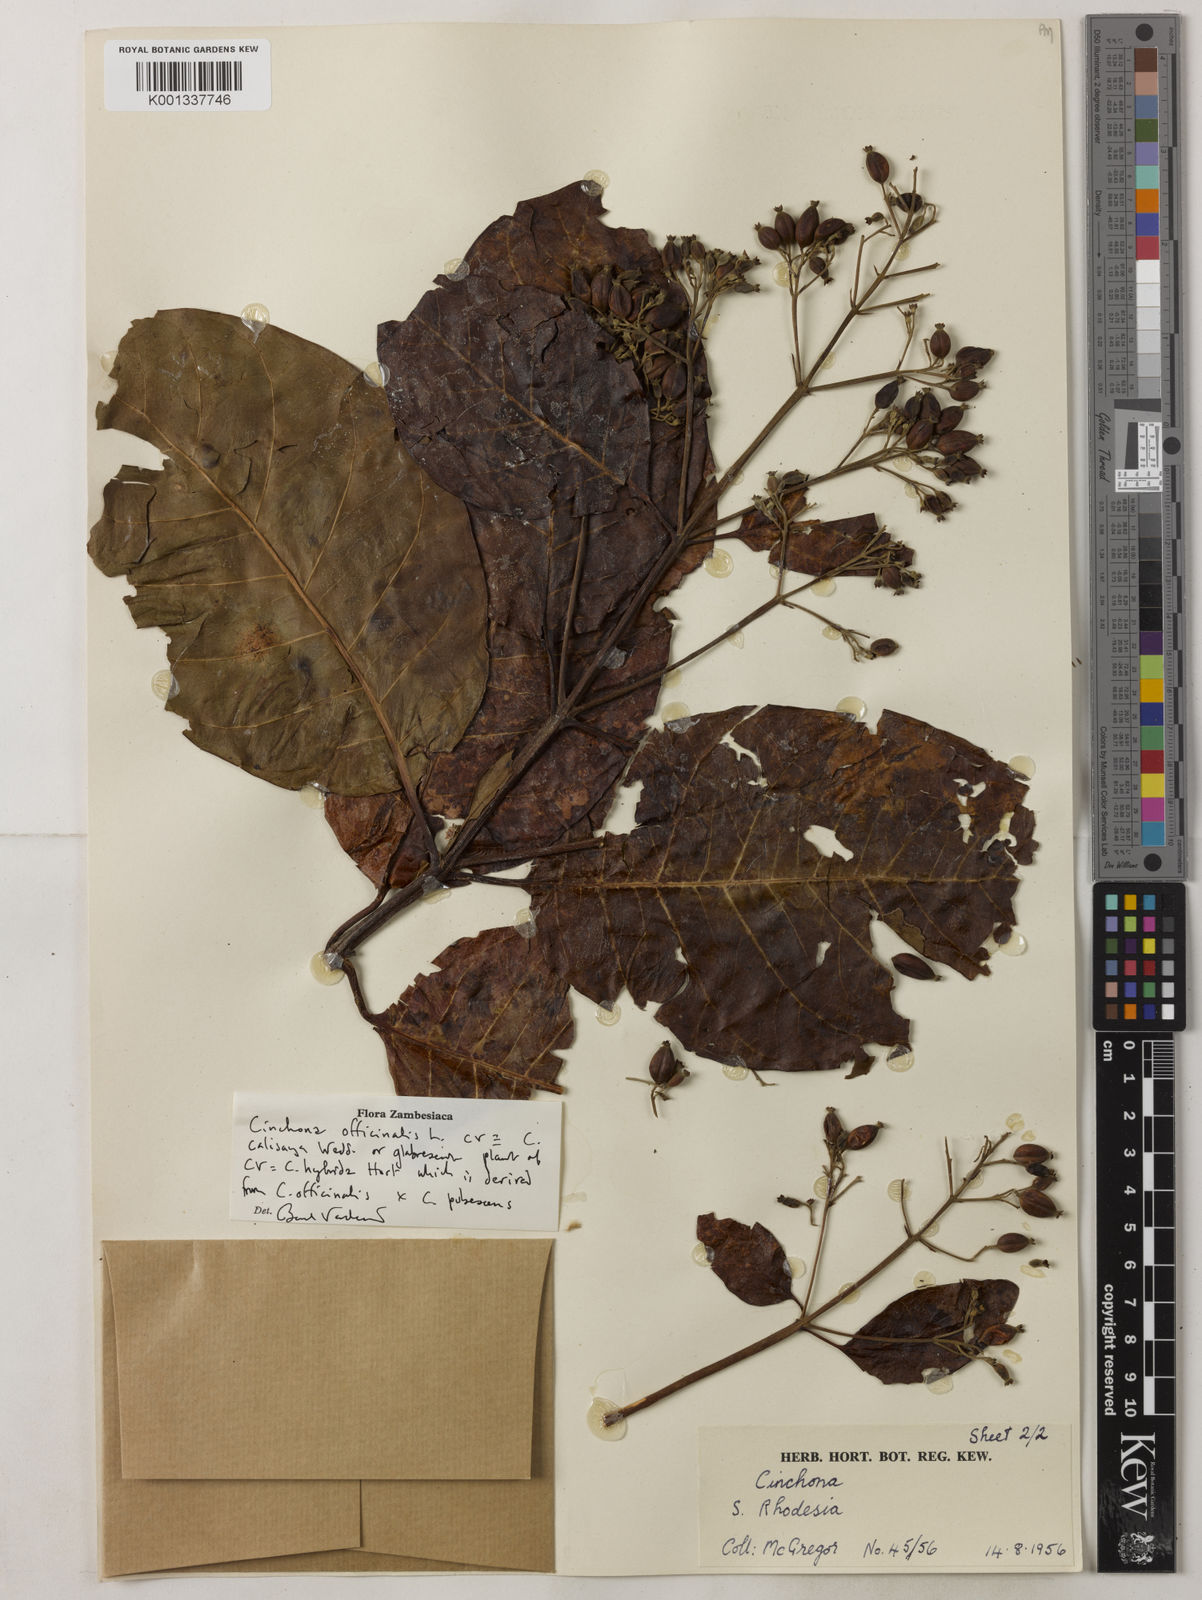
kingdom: Plantae
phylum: Tracheophyta
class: Magnoliopsida
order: Gentianales
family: Rubiaceae
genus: Cinchona
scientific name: Cinchona
